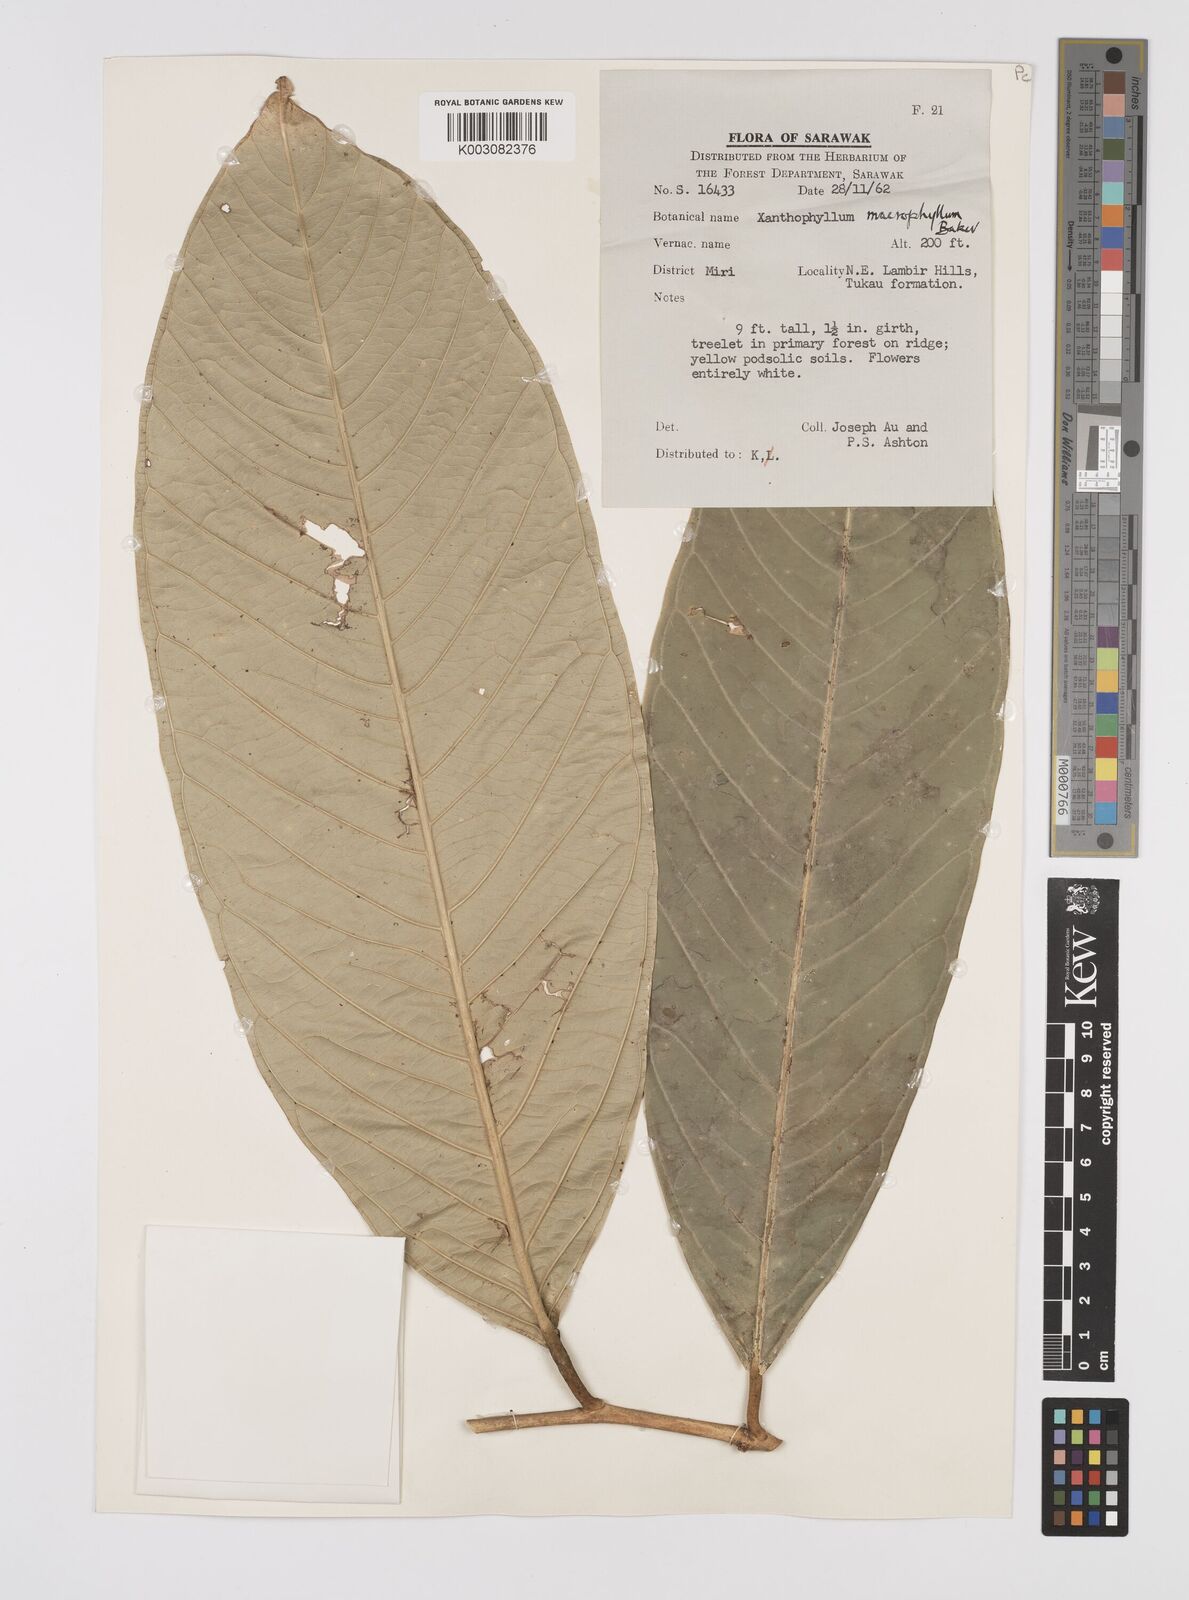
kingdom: Plantae
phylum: Tracheophyta
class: Magnoliopsida
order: Fabales
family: Polygalaceae
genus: Xanthophyllum
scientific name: Xanthophyllum macrophyllum
